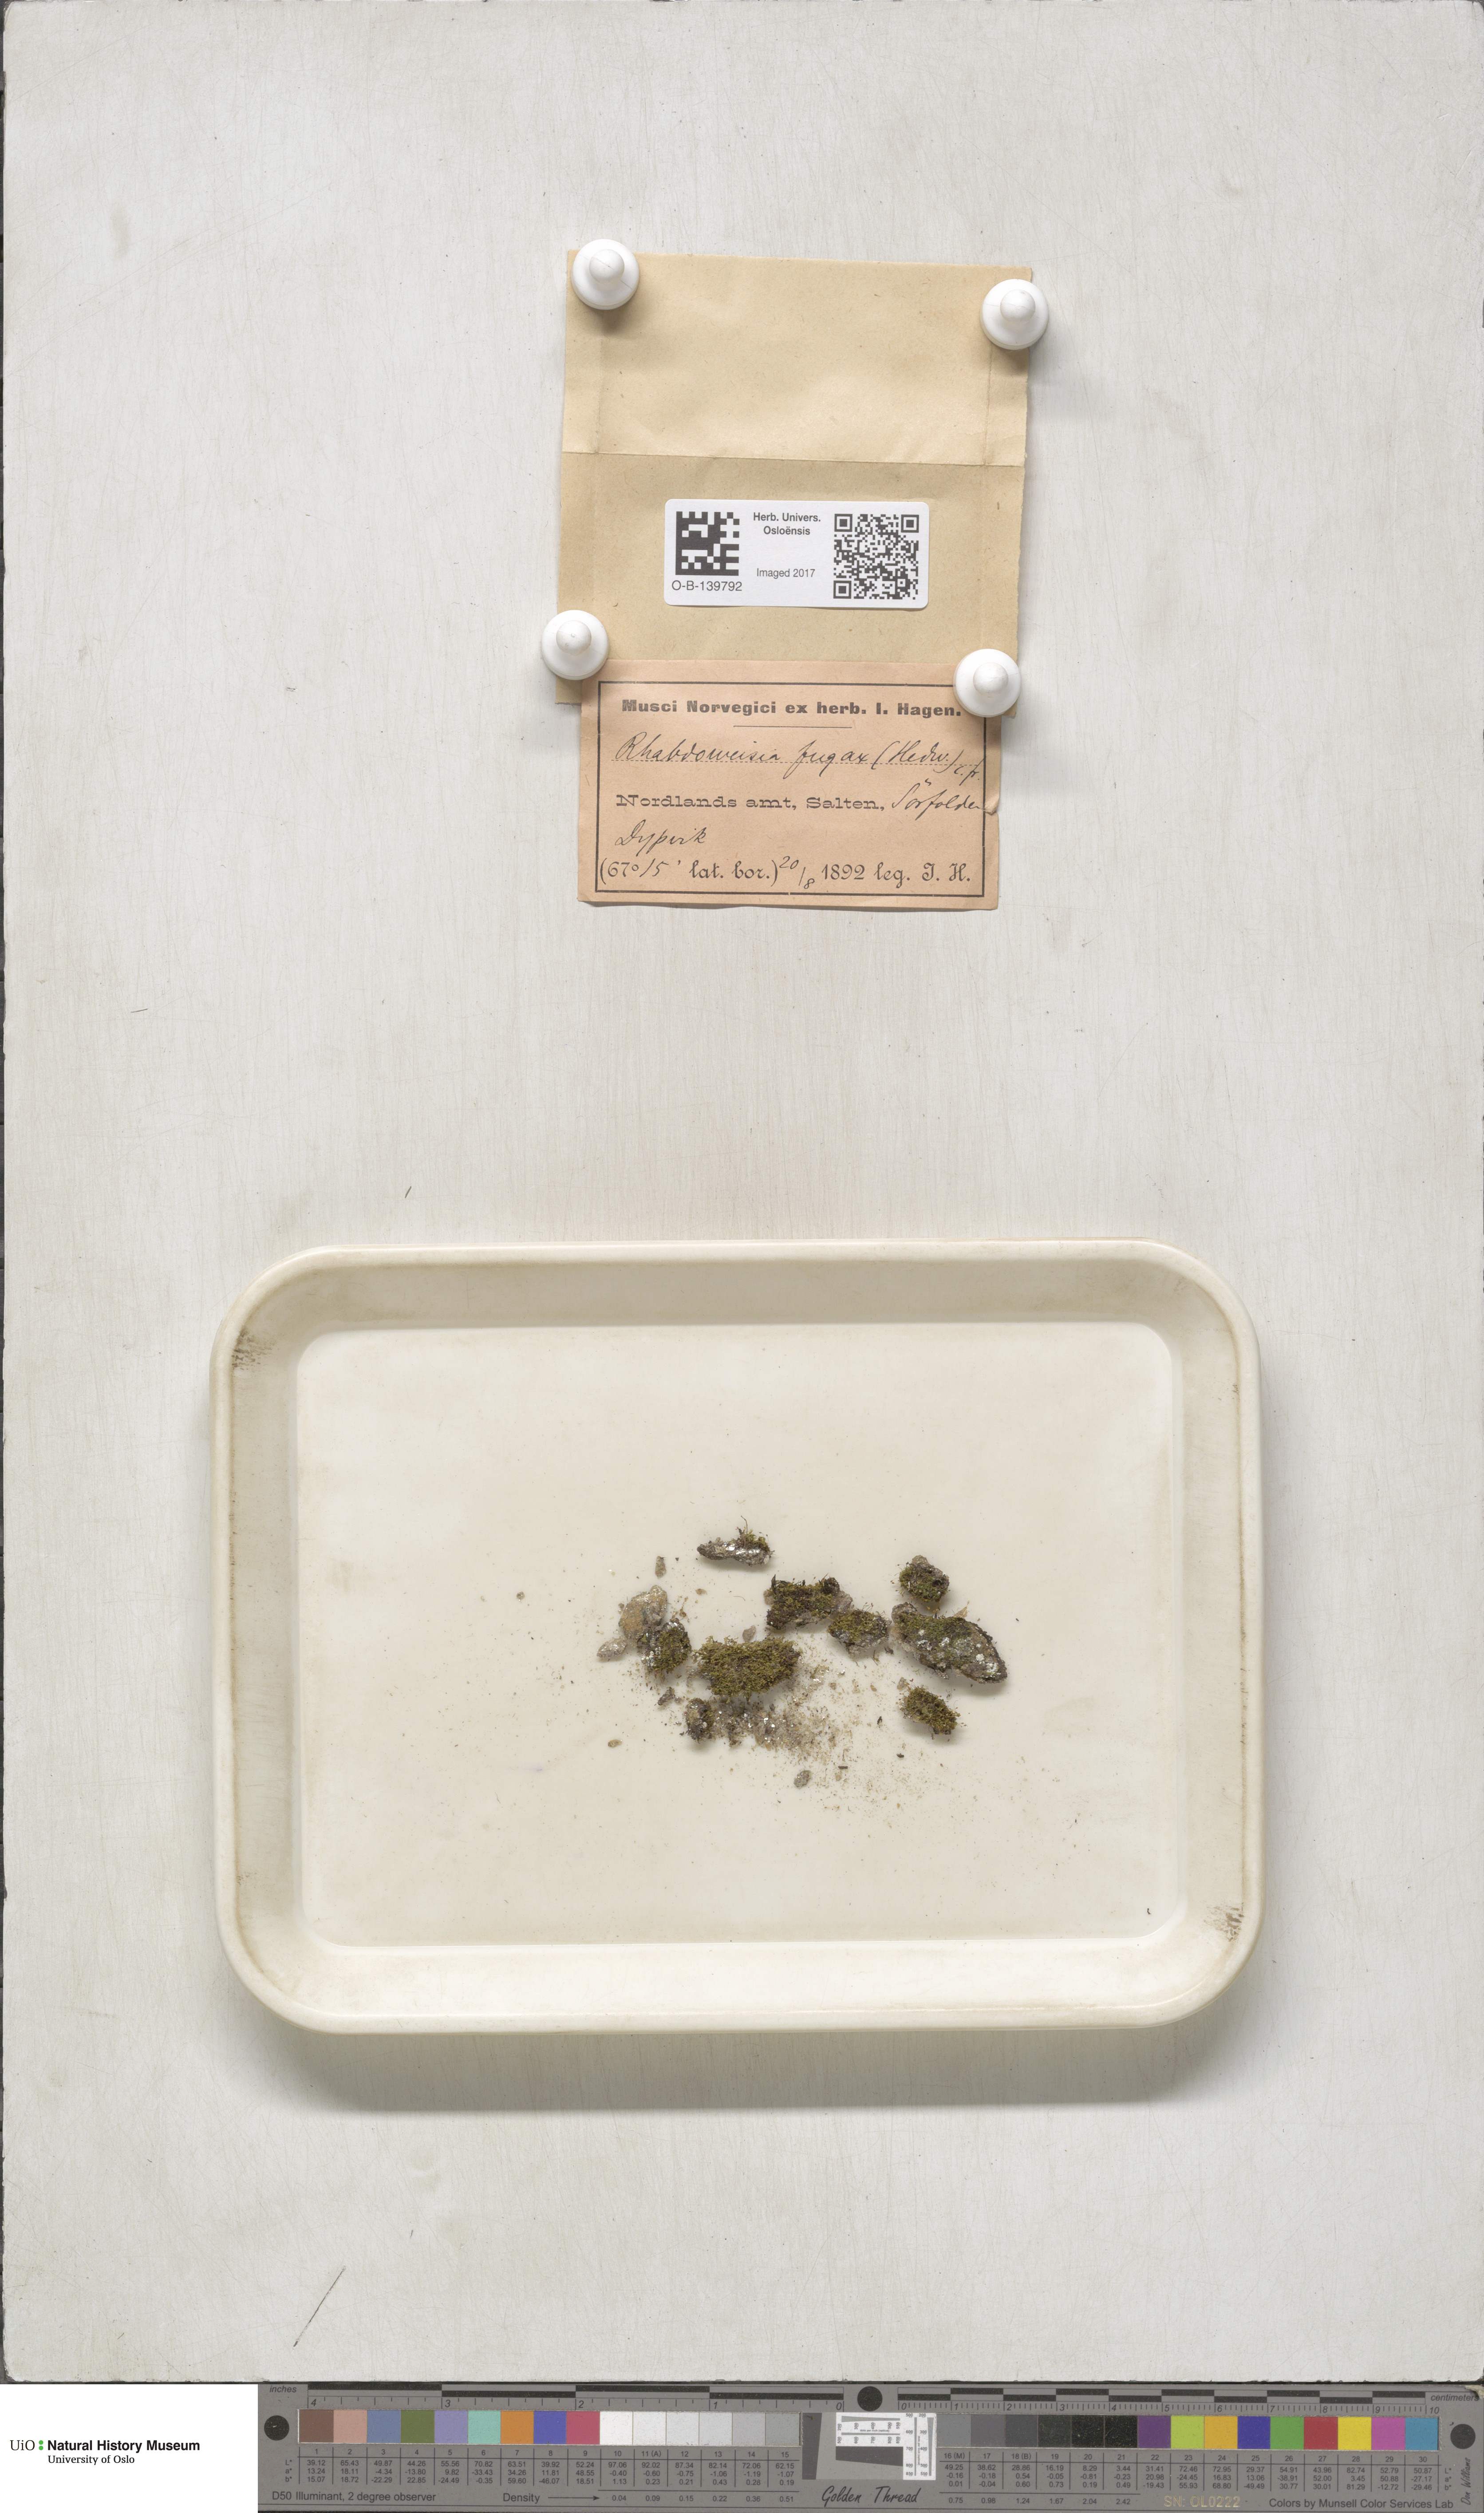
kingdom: Plantae
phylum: Bryophyta
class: Bryopsida
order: Dicranales
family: Rhabdoweisiaceae
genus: Rhabdoweisia
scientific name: Rhabdoweisia fugax
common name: Dwarf streak-moss
